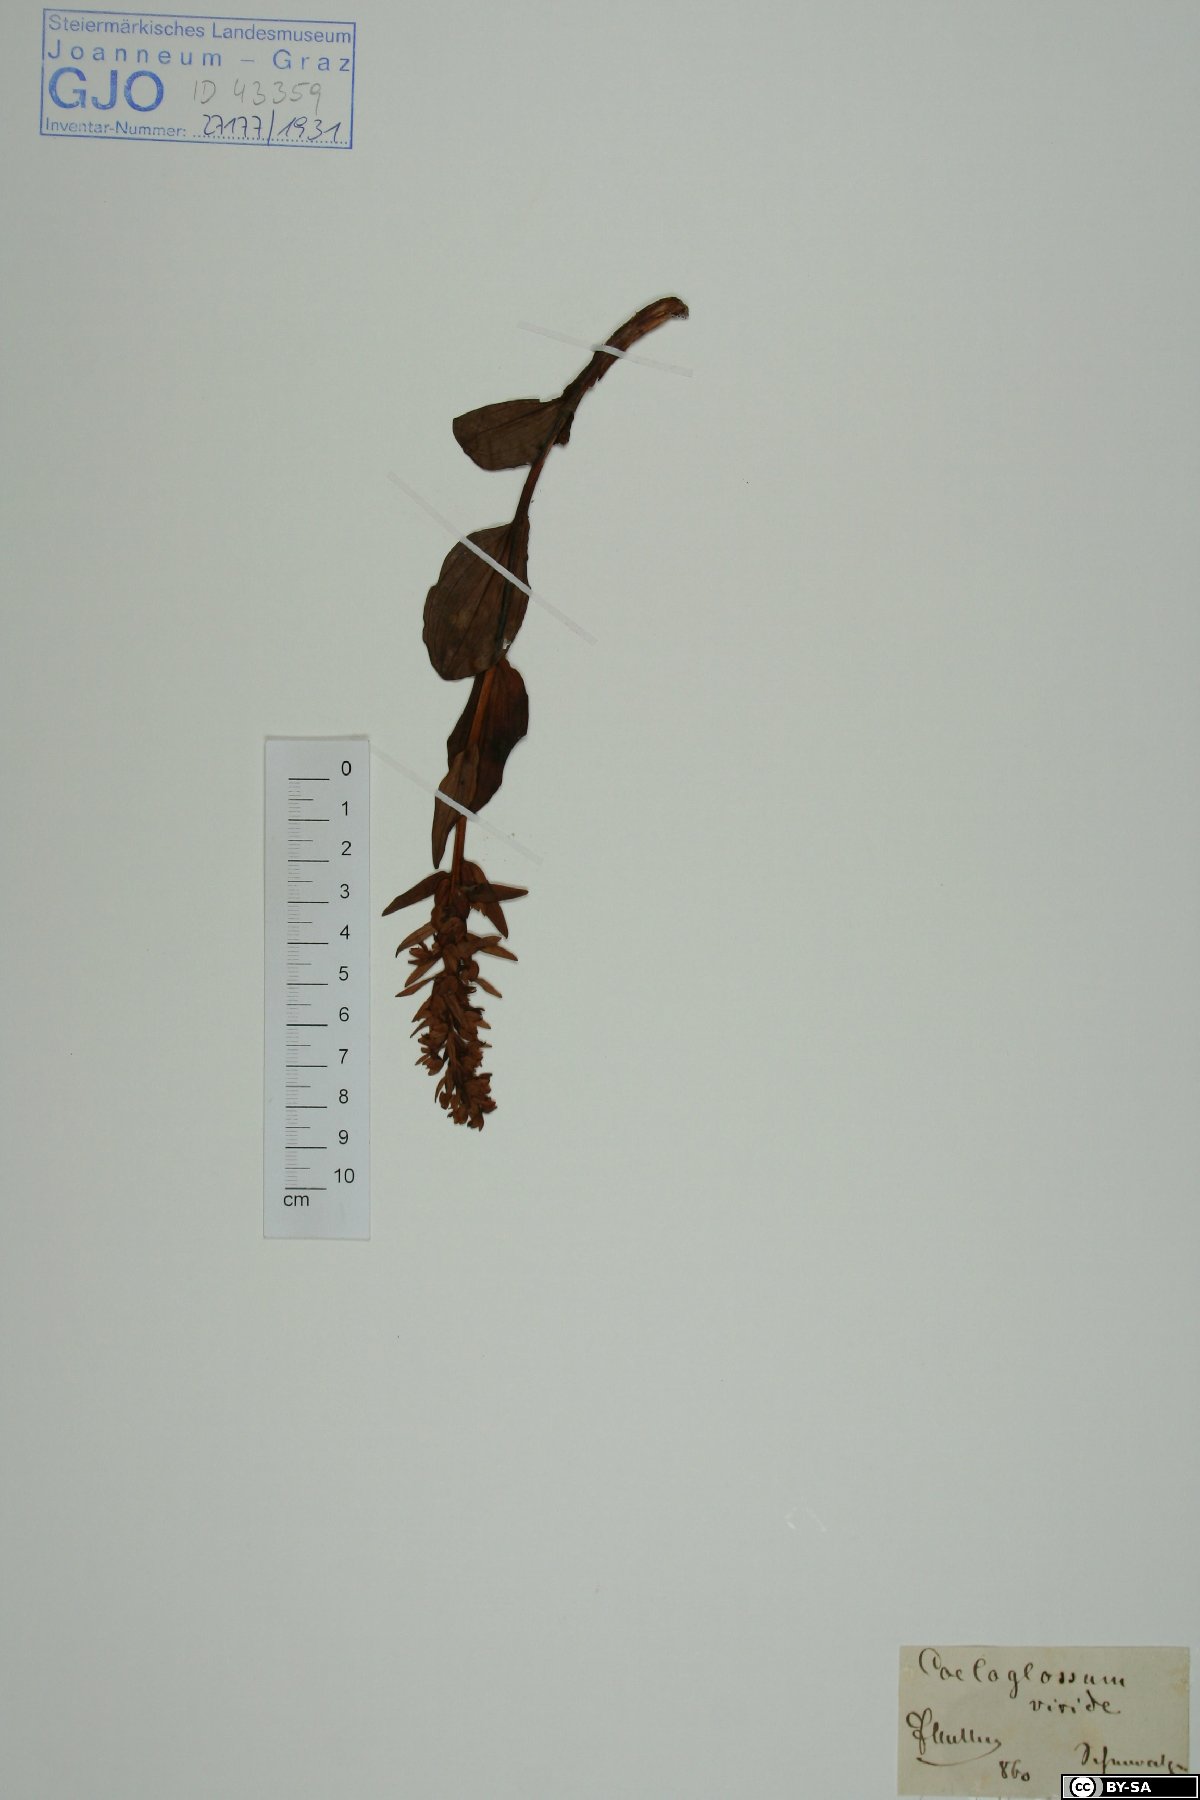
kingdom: Plantae
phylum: Tracheophyta
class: Liliopsida
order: Asparagales
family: Orchidaceae
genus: Dactylorhiza
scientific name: Dactylorhiza viridis
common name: Longbract frog orchid
